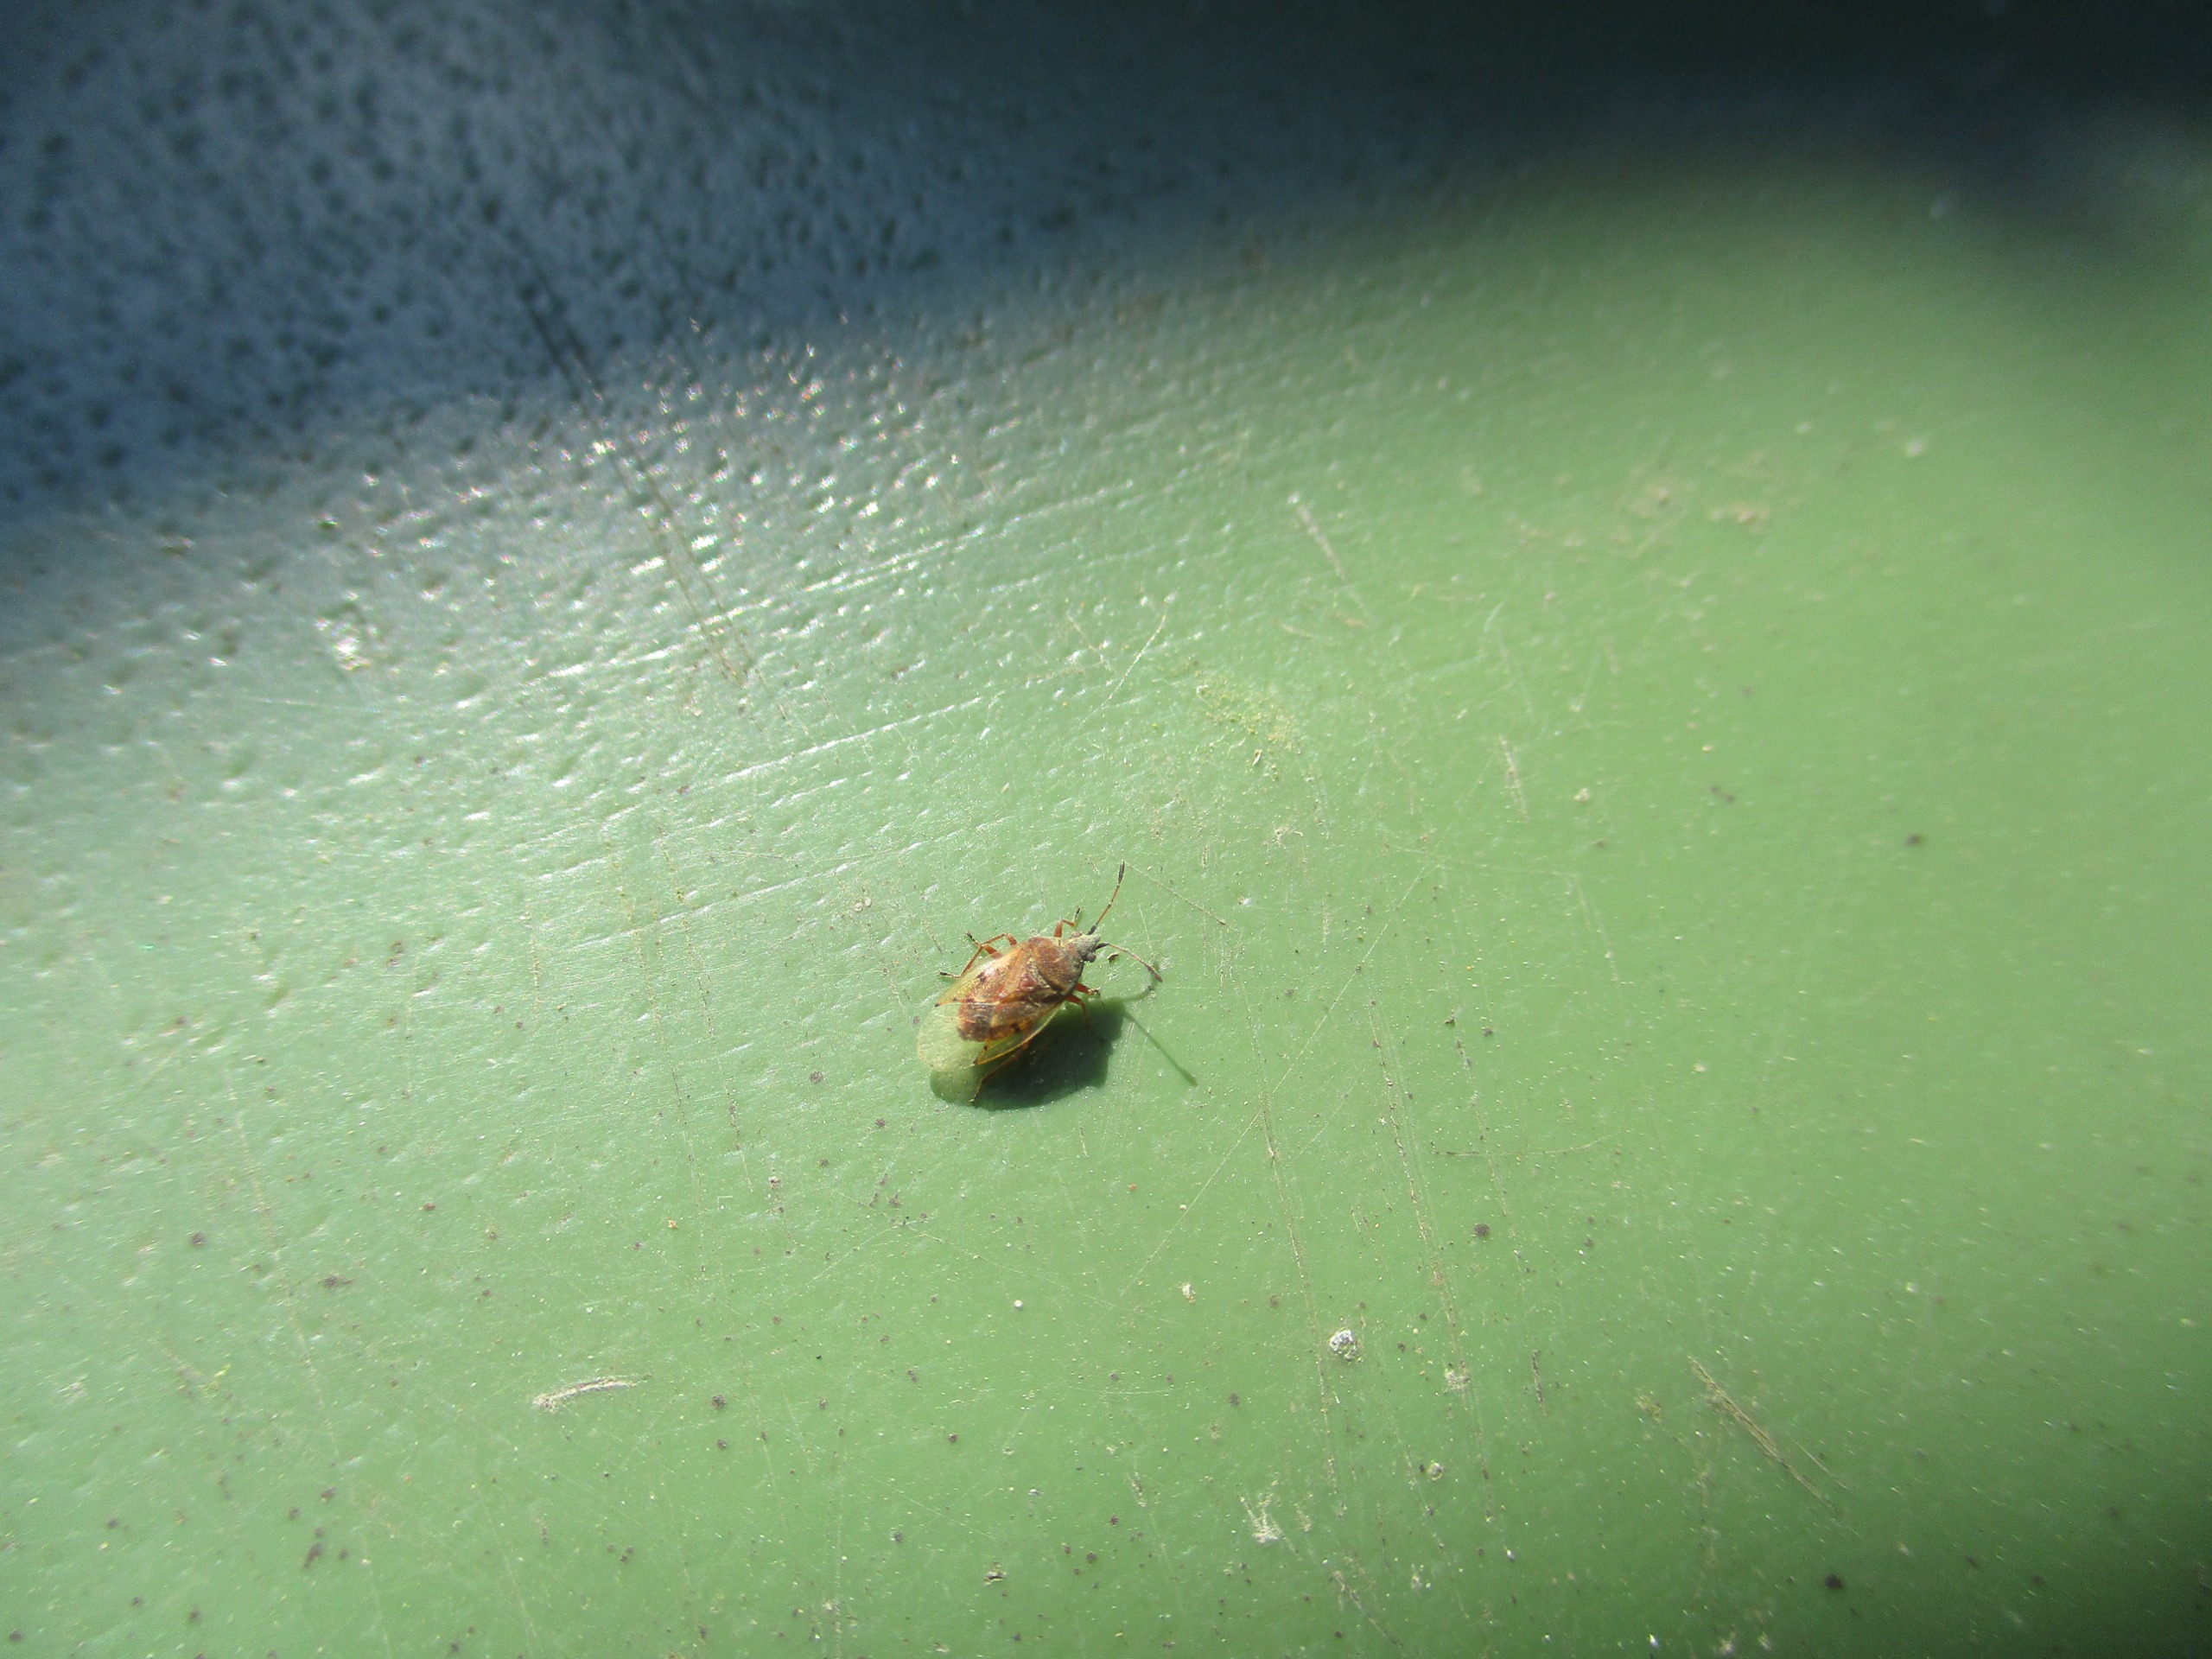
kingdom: Animalia
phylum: Arthropoda
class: Insecta
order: Hemiptera
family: Lygaeidae
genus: Kleidocerys
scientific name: Kleidocerys resedae
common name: Birkefrøtæge
